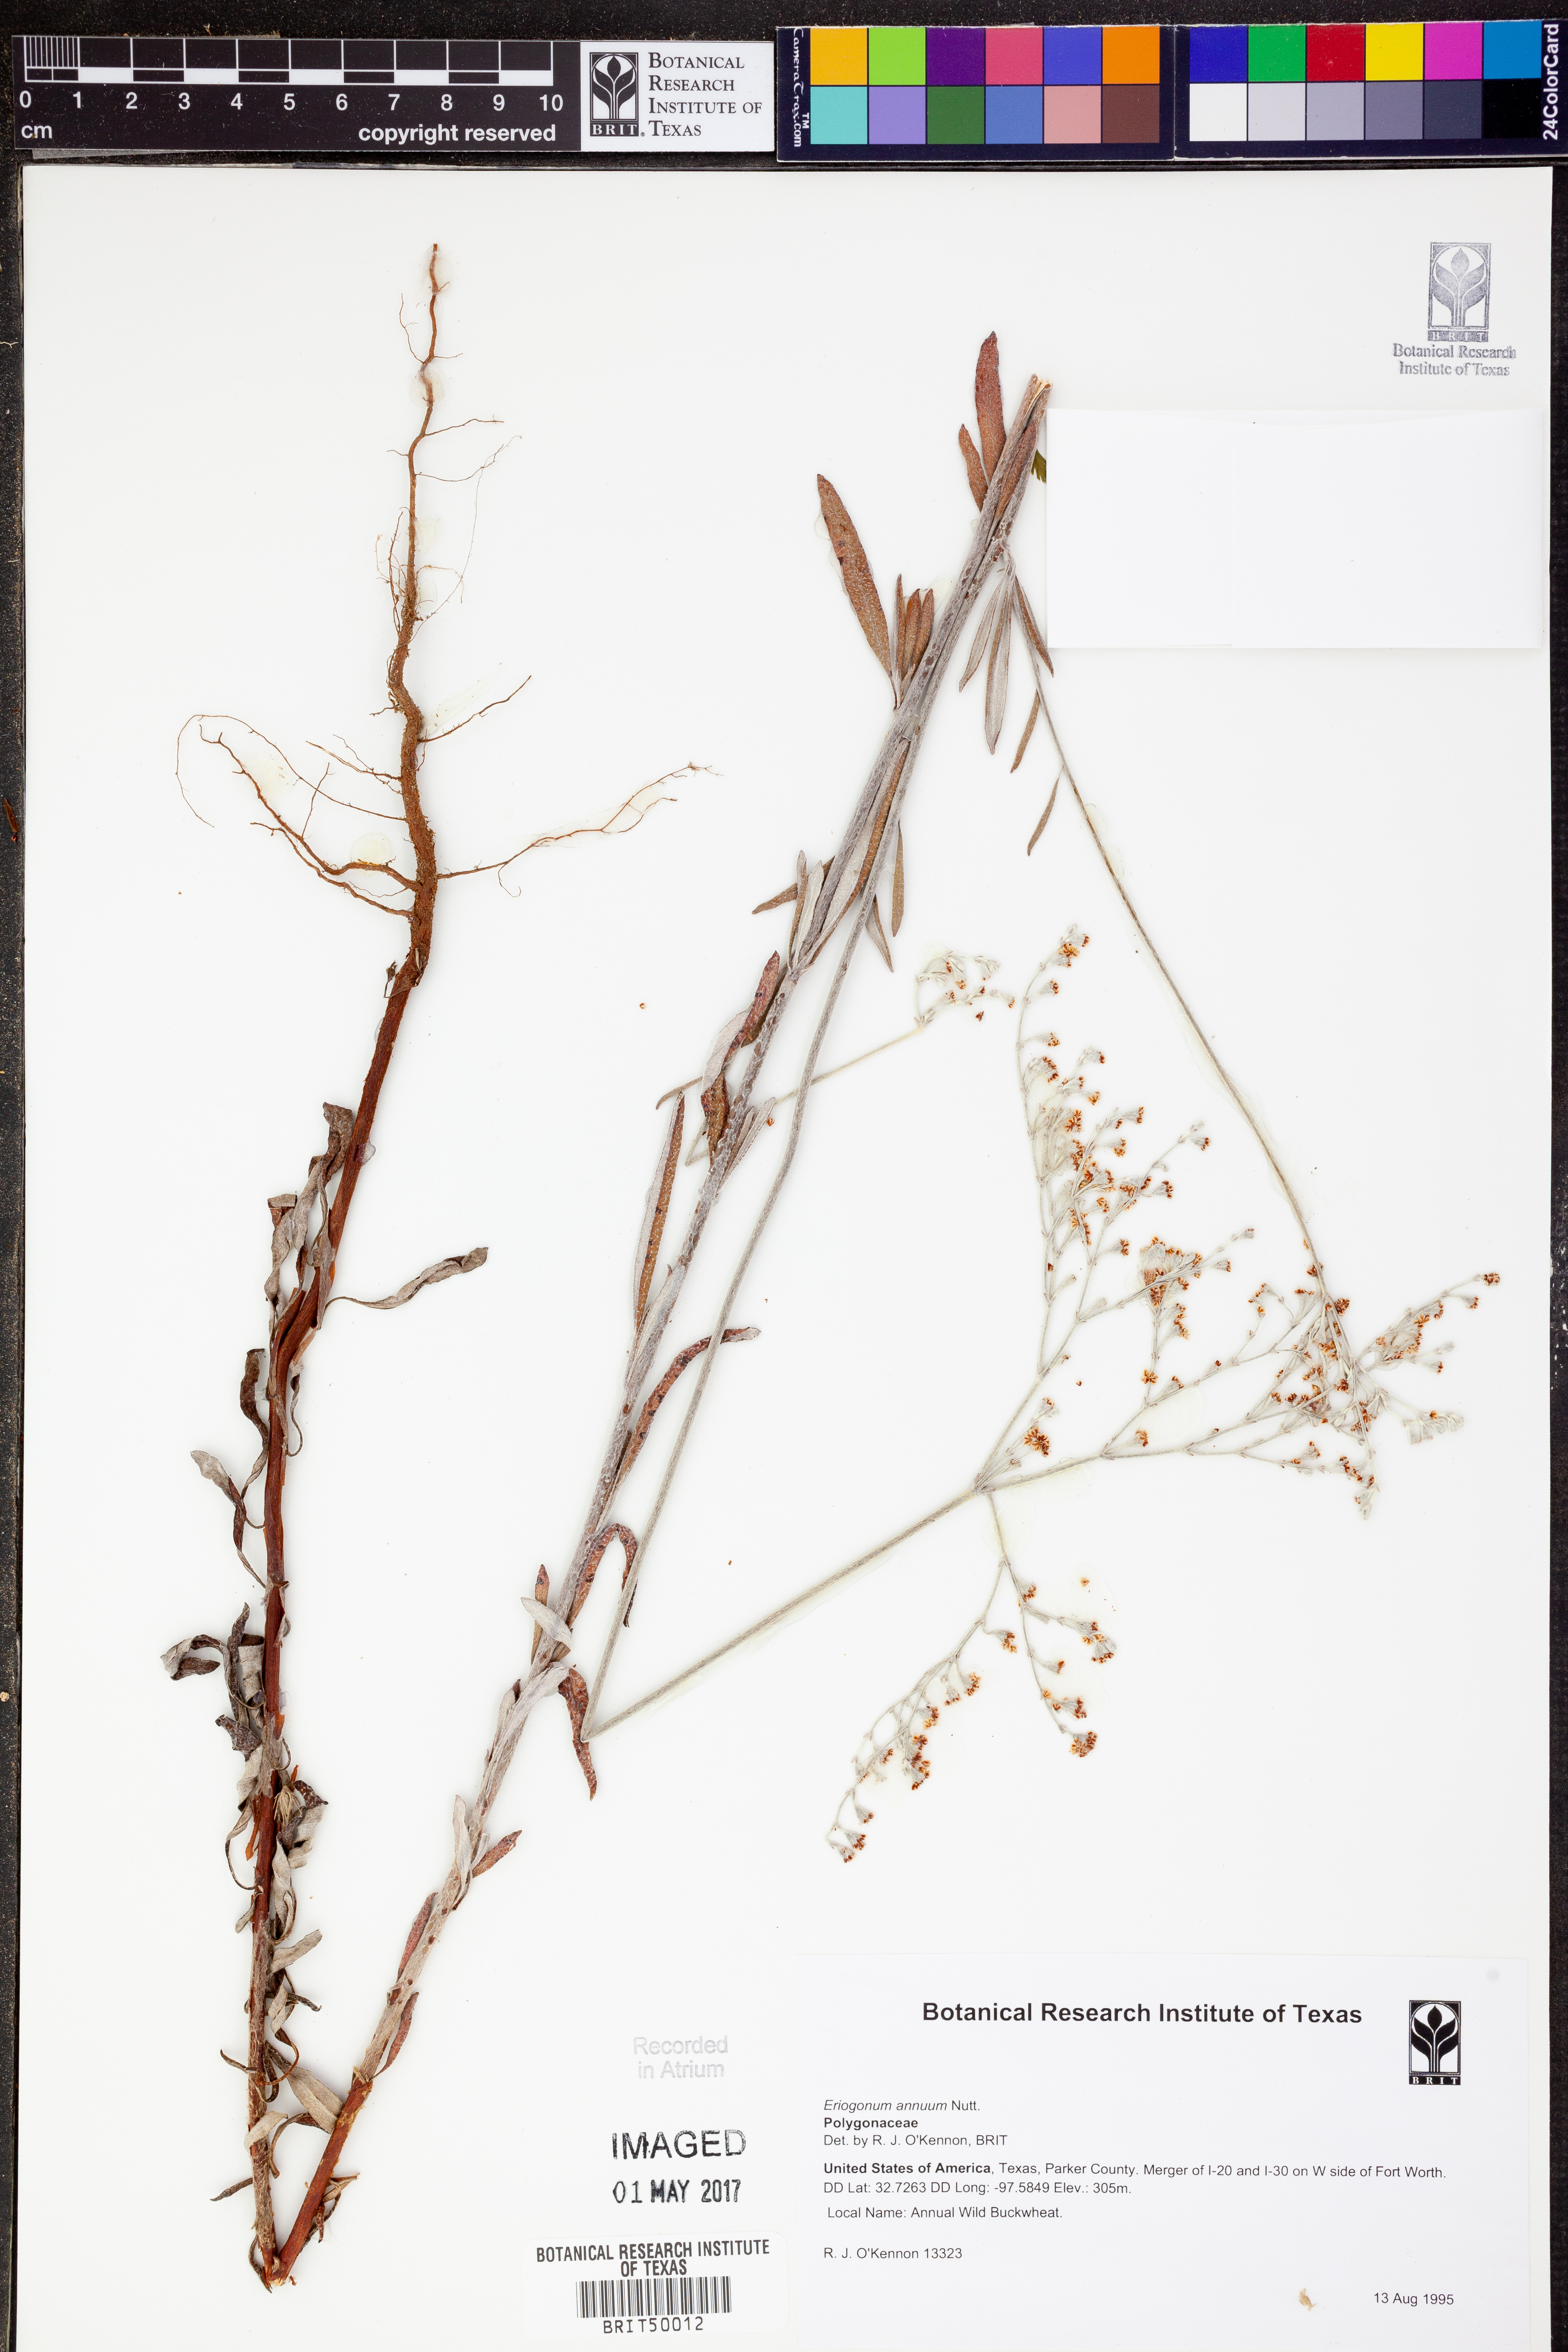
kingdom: Plantae
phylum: Tracheophyta
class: Magnoliopsida
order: Caryophyllales
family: Polygonaceae
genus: Eriogonum
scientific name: Eriogonum annuum
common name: Annual wild buckwheat
